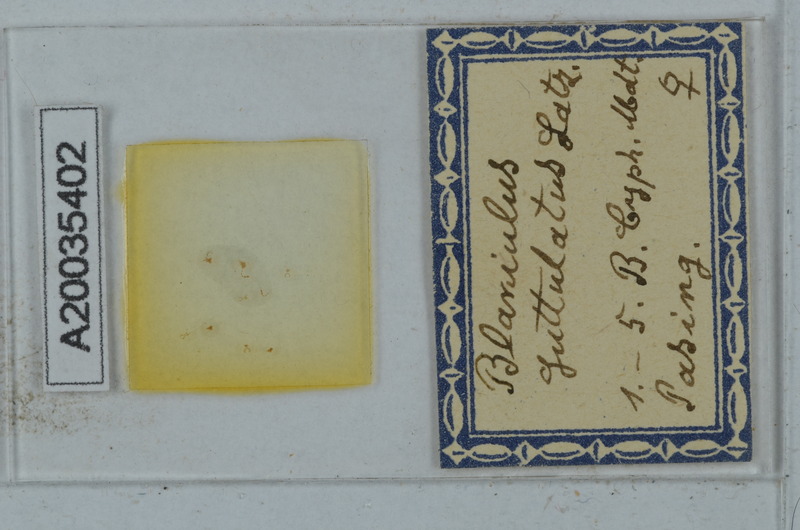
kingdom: Animalia
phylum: Arthropoda
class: Diplopoda
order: Julida
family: Blaniulidae
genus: Blaniulus
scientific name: Blaniulus guttulatus
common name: Spotted snake millipede
